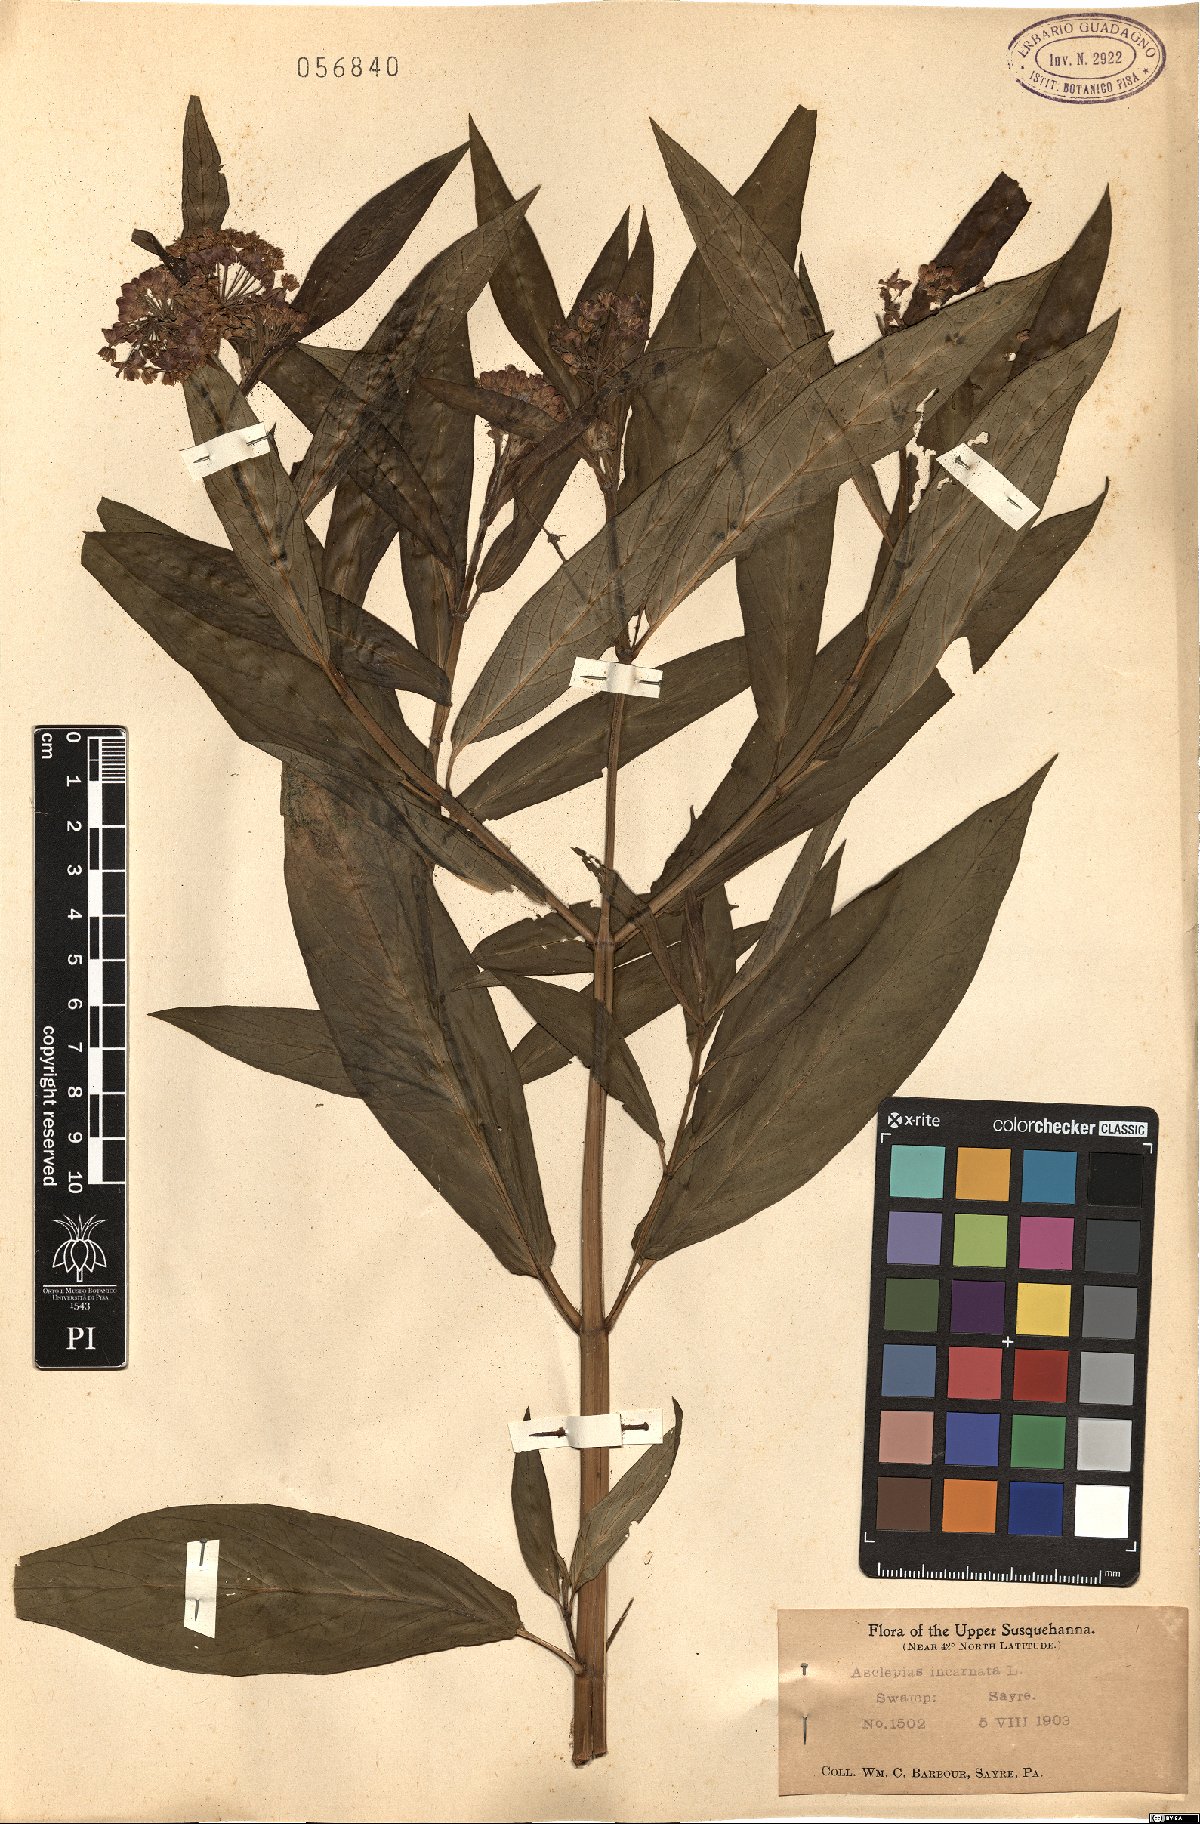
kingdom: Plantae
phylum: Tracheophyta
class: Magnoliopsida
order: Gentianales
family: Apocynaceae
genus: Asclepias
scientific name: Asclepias incarnata
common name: Swamp milkweed
